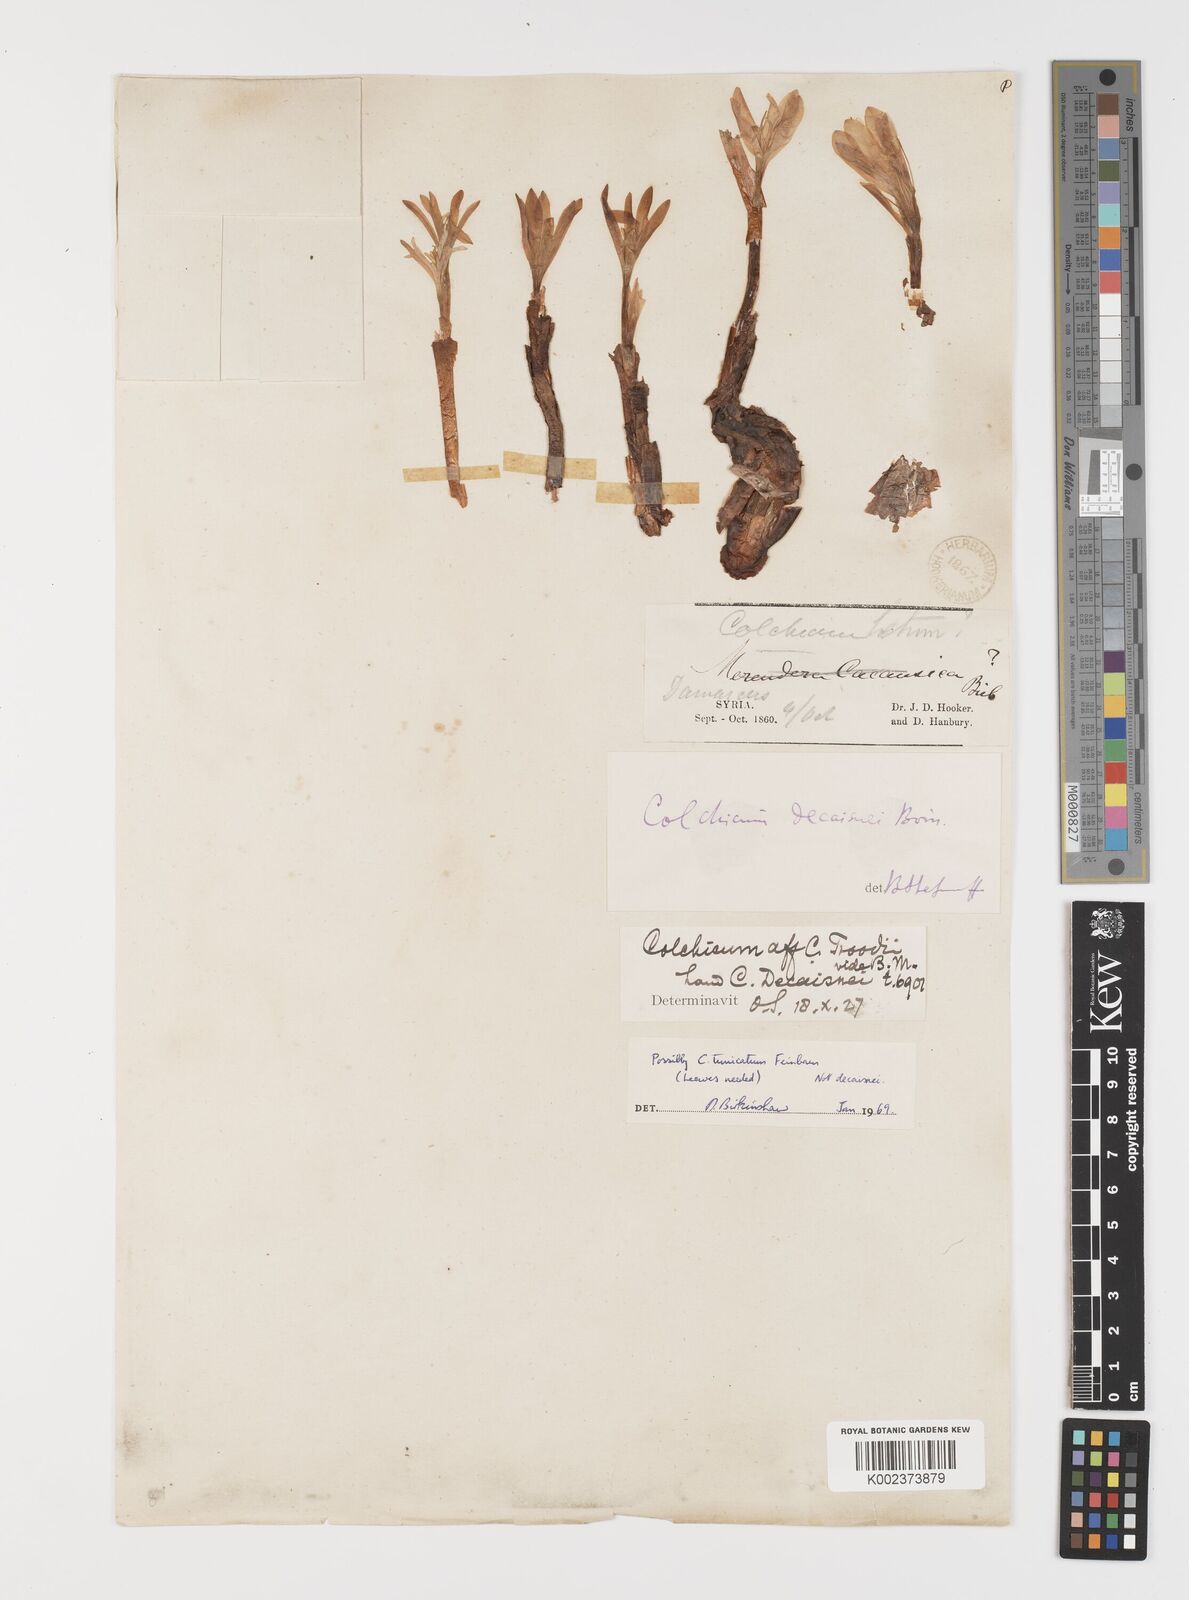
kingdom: Plantae
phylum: Tracheophyta
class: Liliopsida
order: Liliales
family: Colchicaceae
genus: Colchicum
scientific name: Colchicum decaisnei
